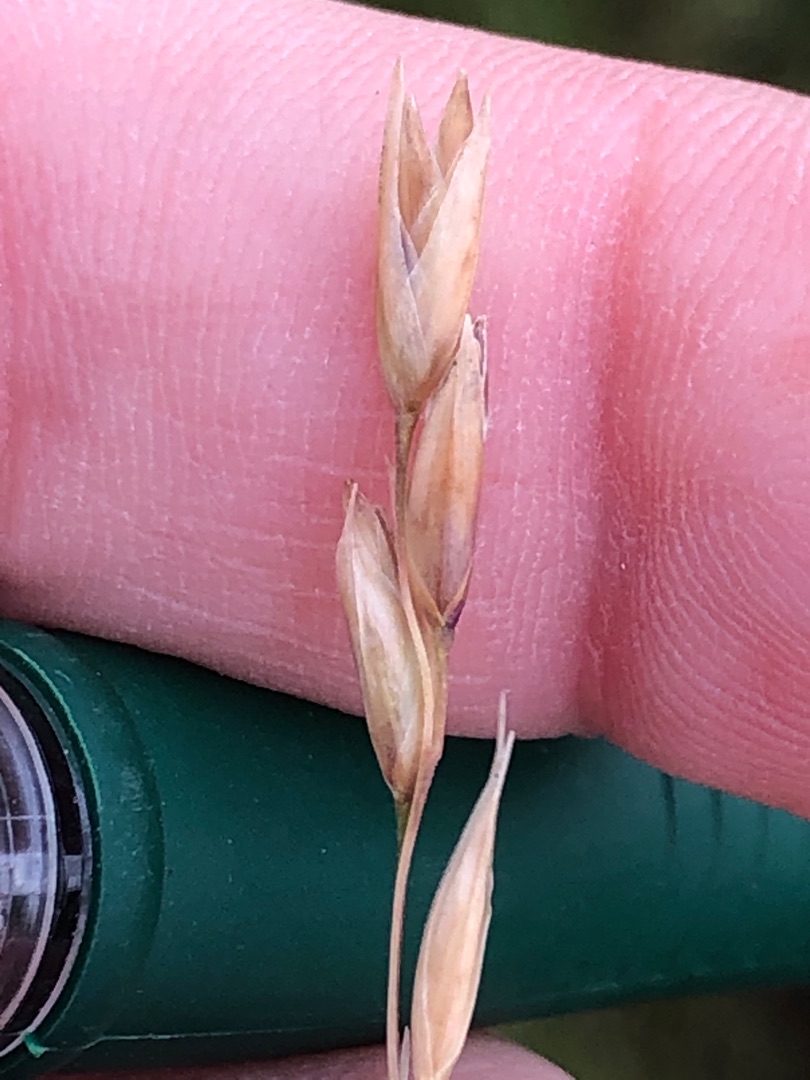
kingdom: Plantae
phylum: Tracheophyta
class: Liliopsida
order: Poales
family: Poaceae
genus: Danthonia
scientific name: Danthonia decumbens
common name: Tandbælg
